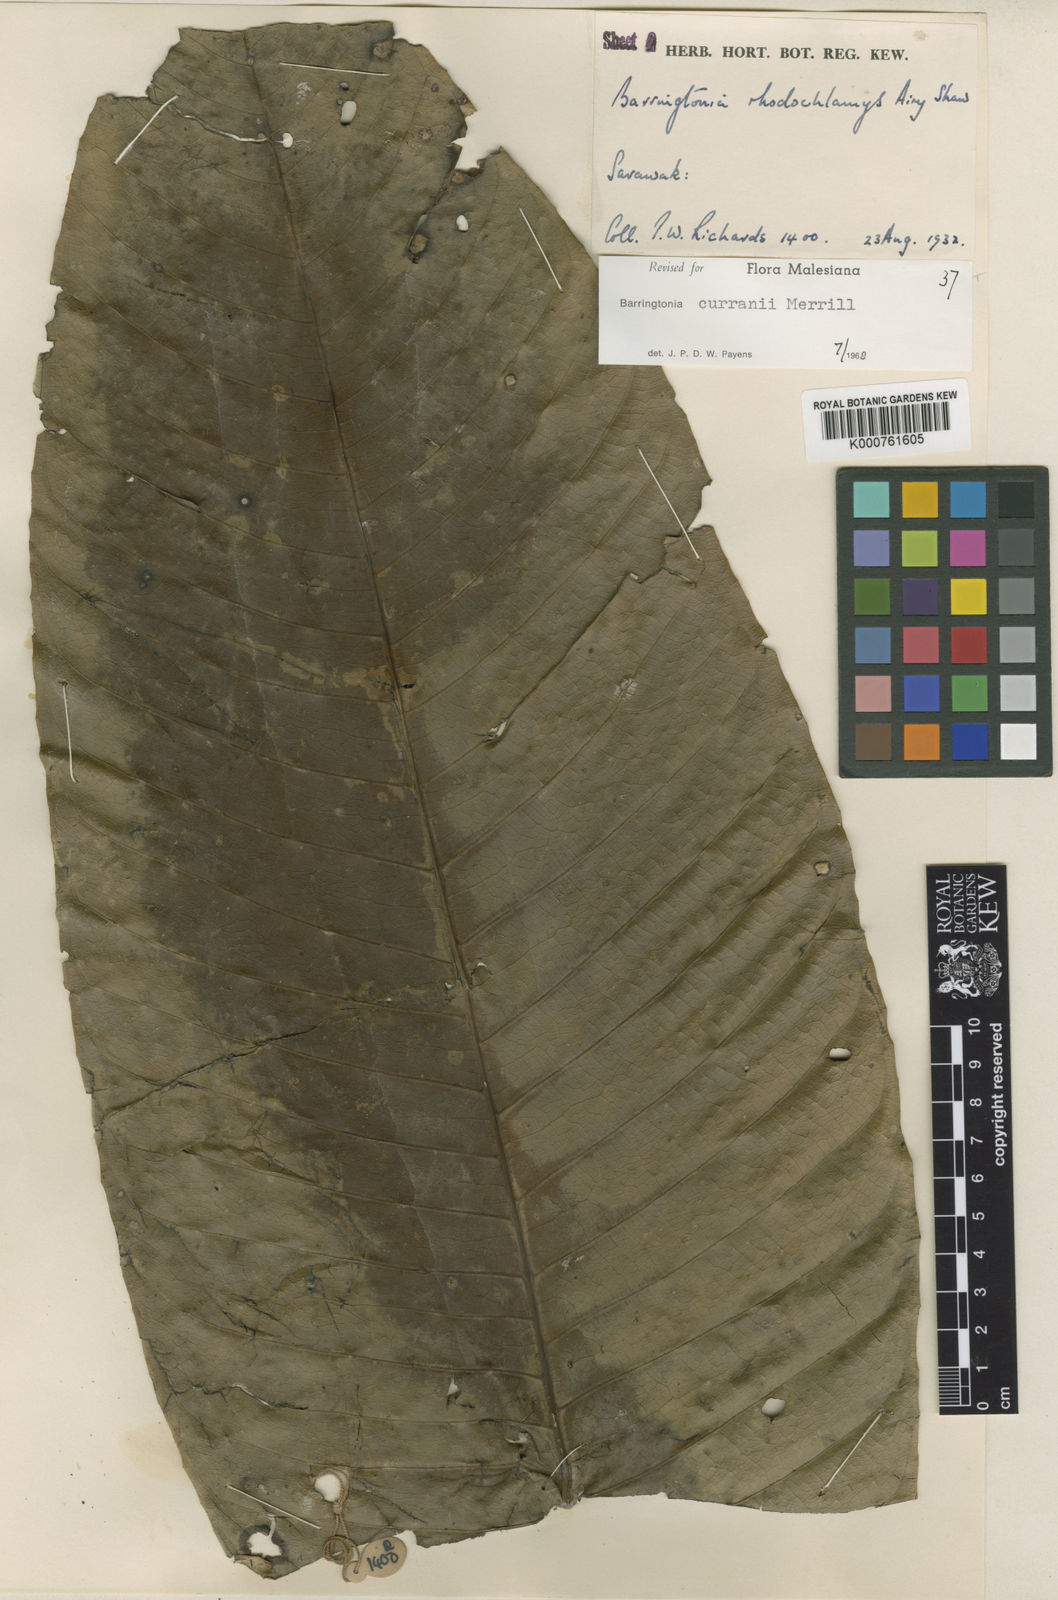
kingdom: Plantae
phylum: Tracheophyta
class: Magnoliopsida
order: Ericales
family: Lecythidaceae
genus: Barringtonia
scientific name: Barringtonia curranii
